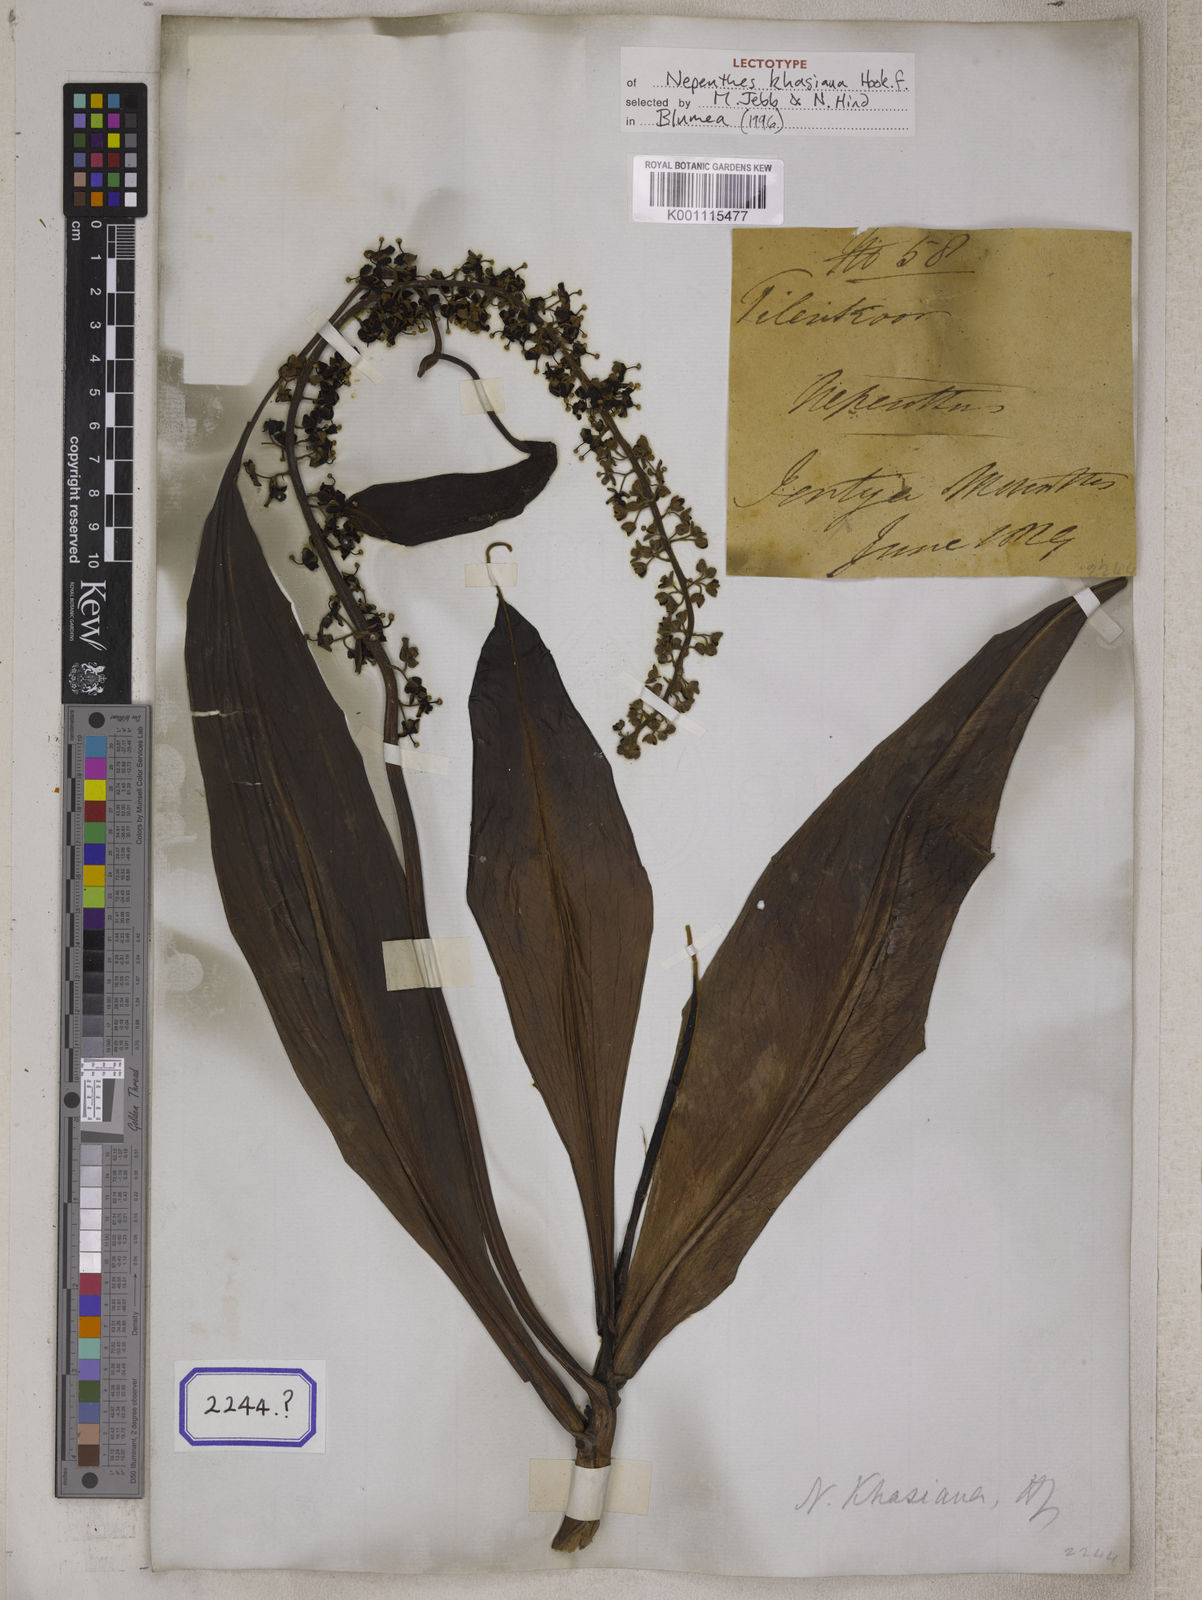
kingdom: Plantae
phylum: Tracheophyta
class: Magnoliopsida
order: Caryophyllales
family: Nepenthaceae
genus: Nepenthes
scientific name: Nepenthes distillatoria
